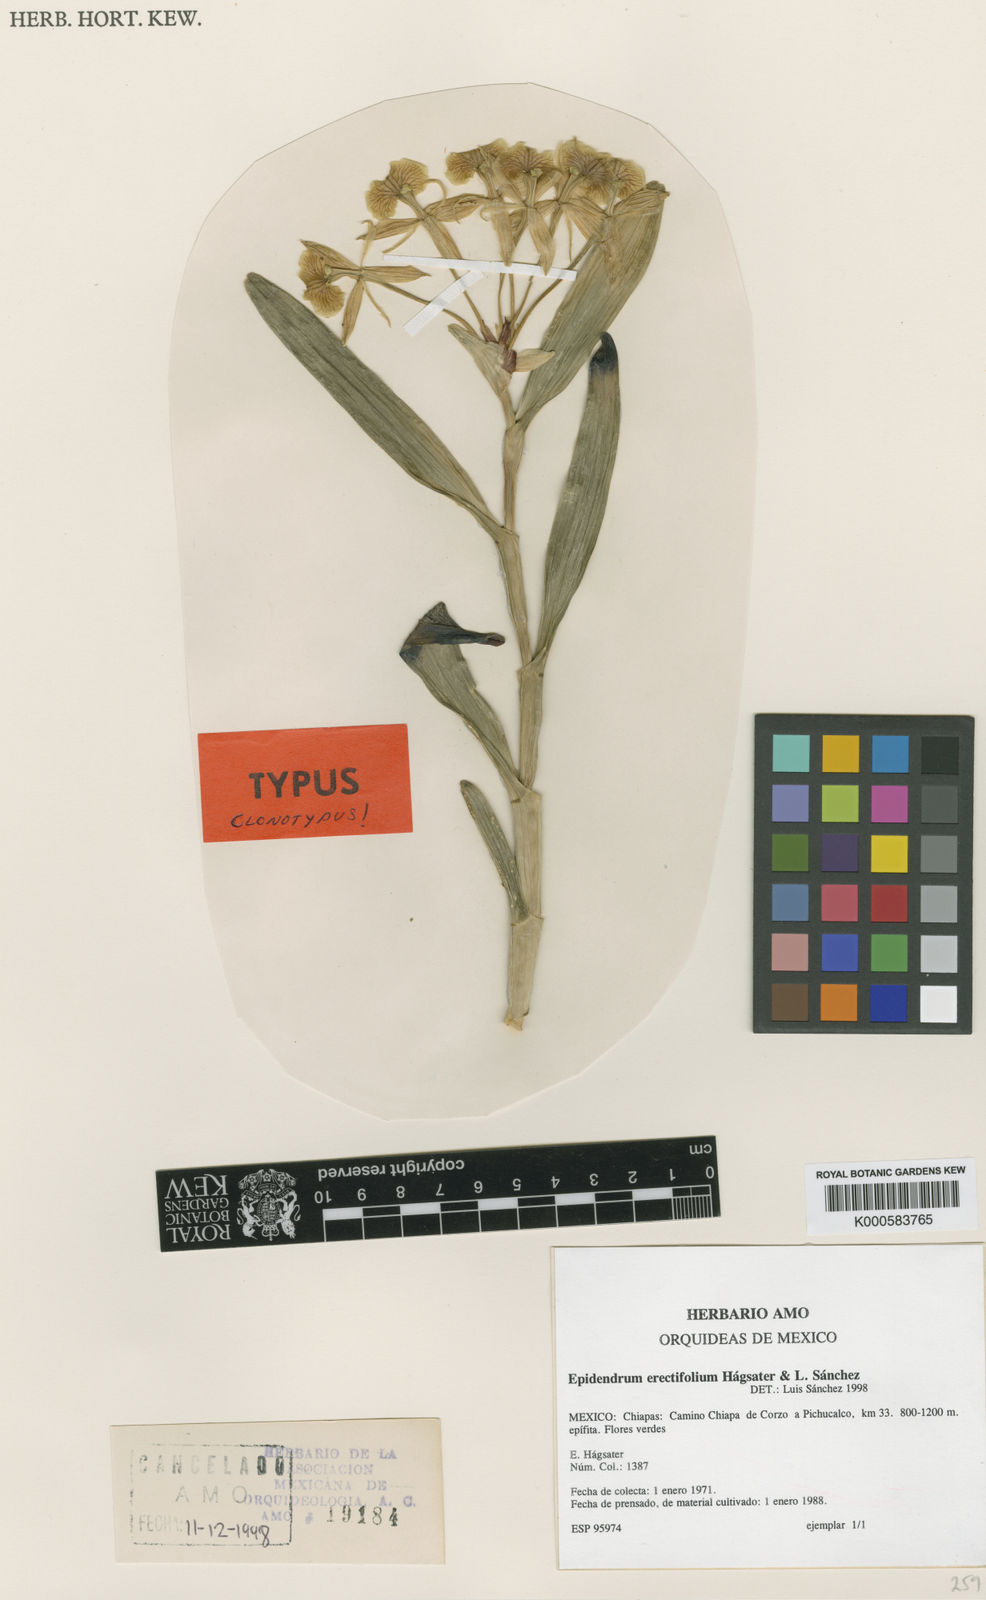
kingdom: Plantae
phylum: Tracheophyta
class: Liliopsida
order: Asparagales
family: Orchidaceae
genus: Epidendrum
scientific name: Epidendrum
